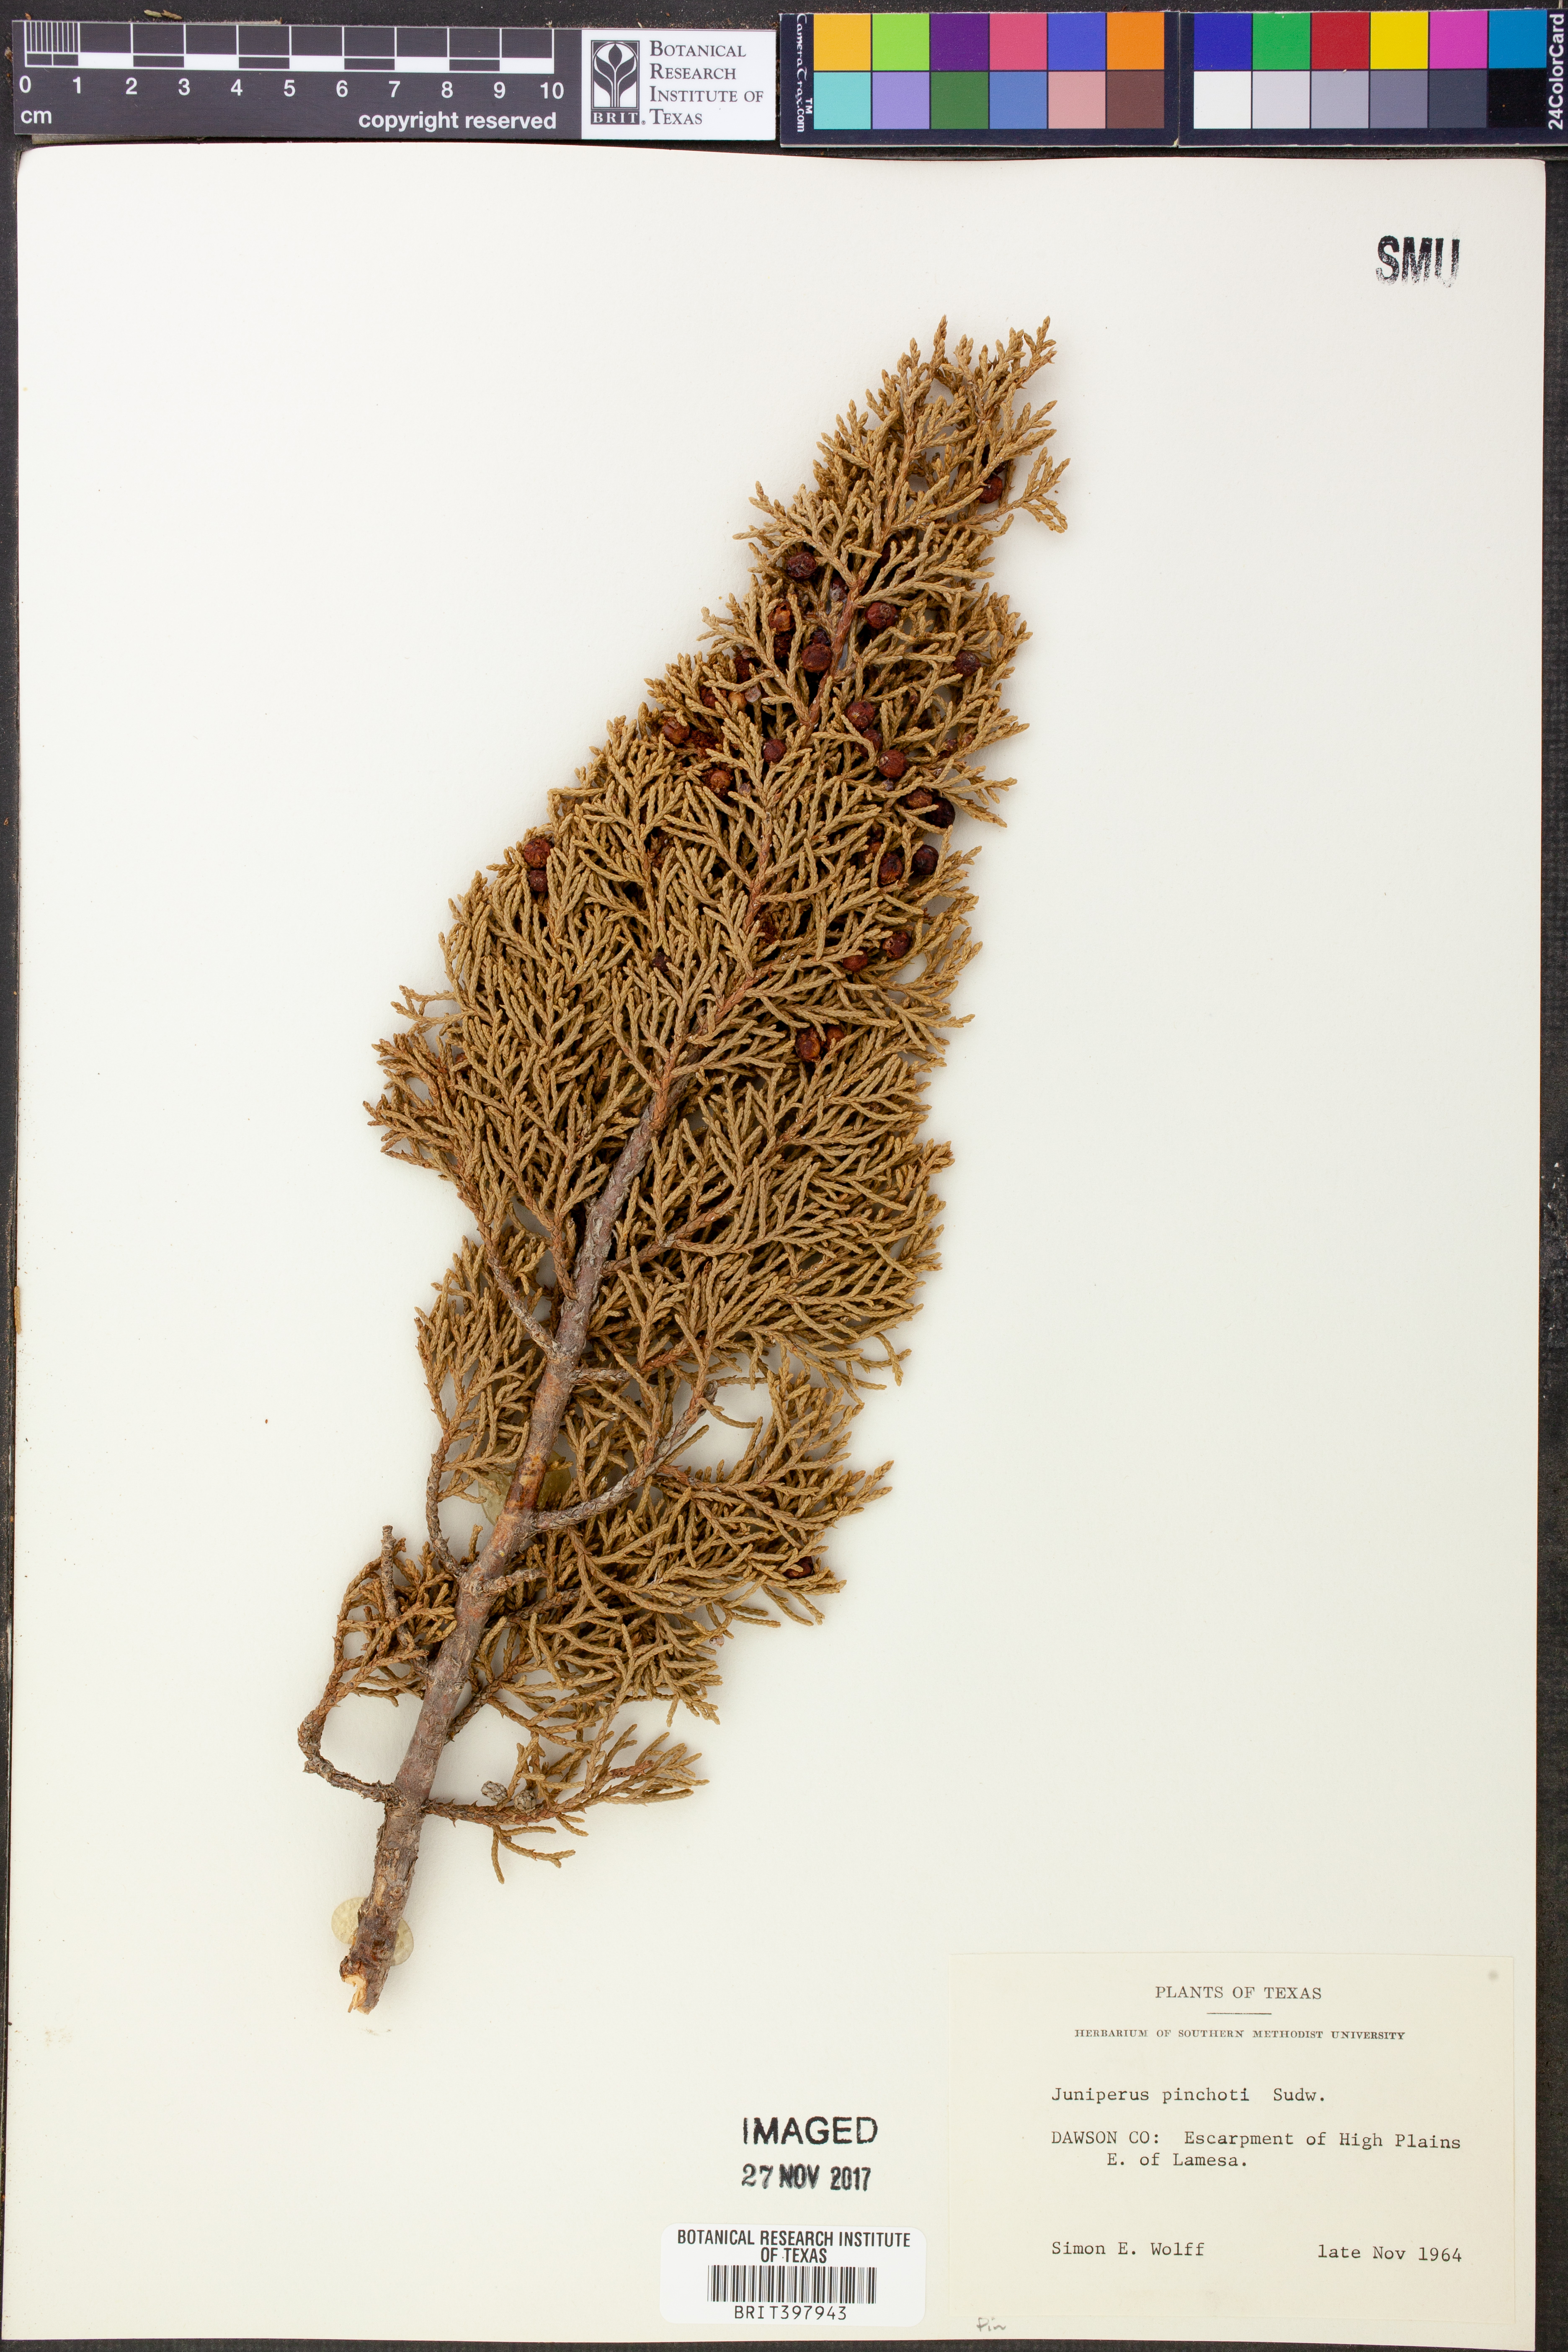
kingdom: Plantae
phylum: Tracheophyta
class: Pinopsida
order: Pinales
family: Cupressaceae
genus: Juniperus
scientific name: Juniperus pinchotii
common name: Pinchot juniper
